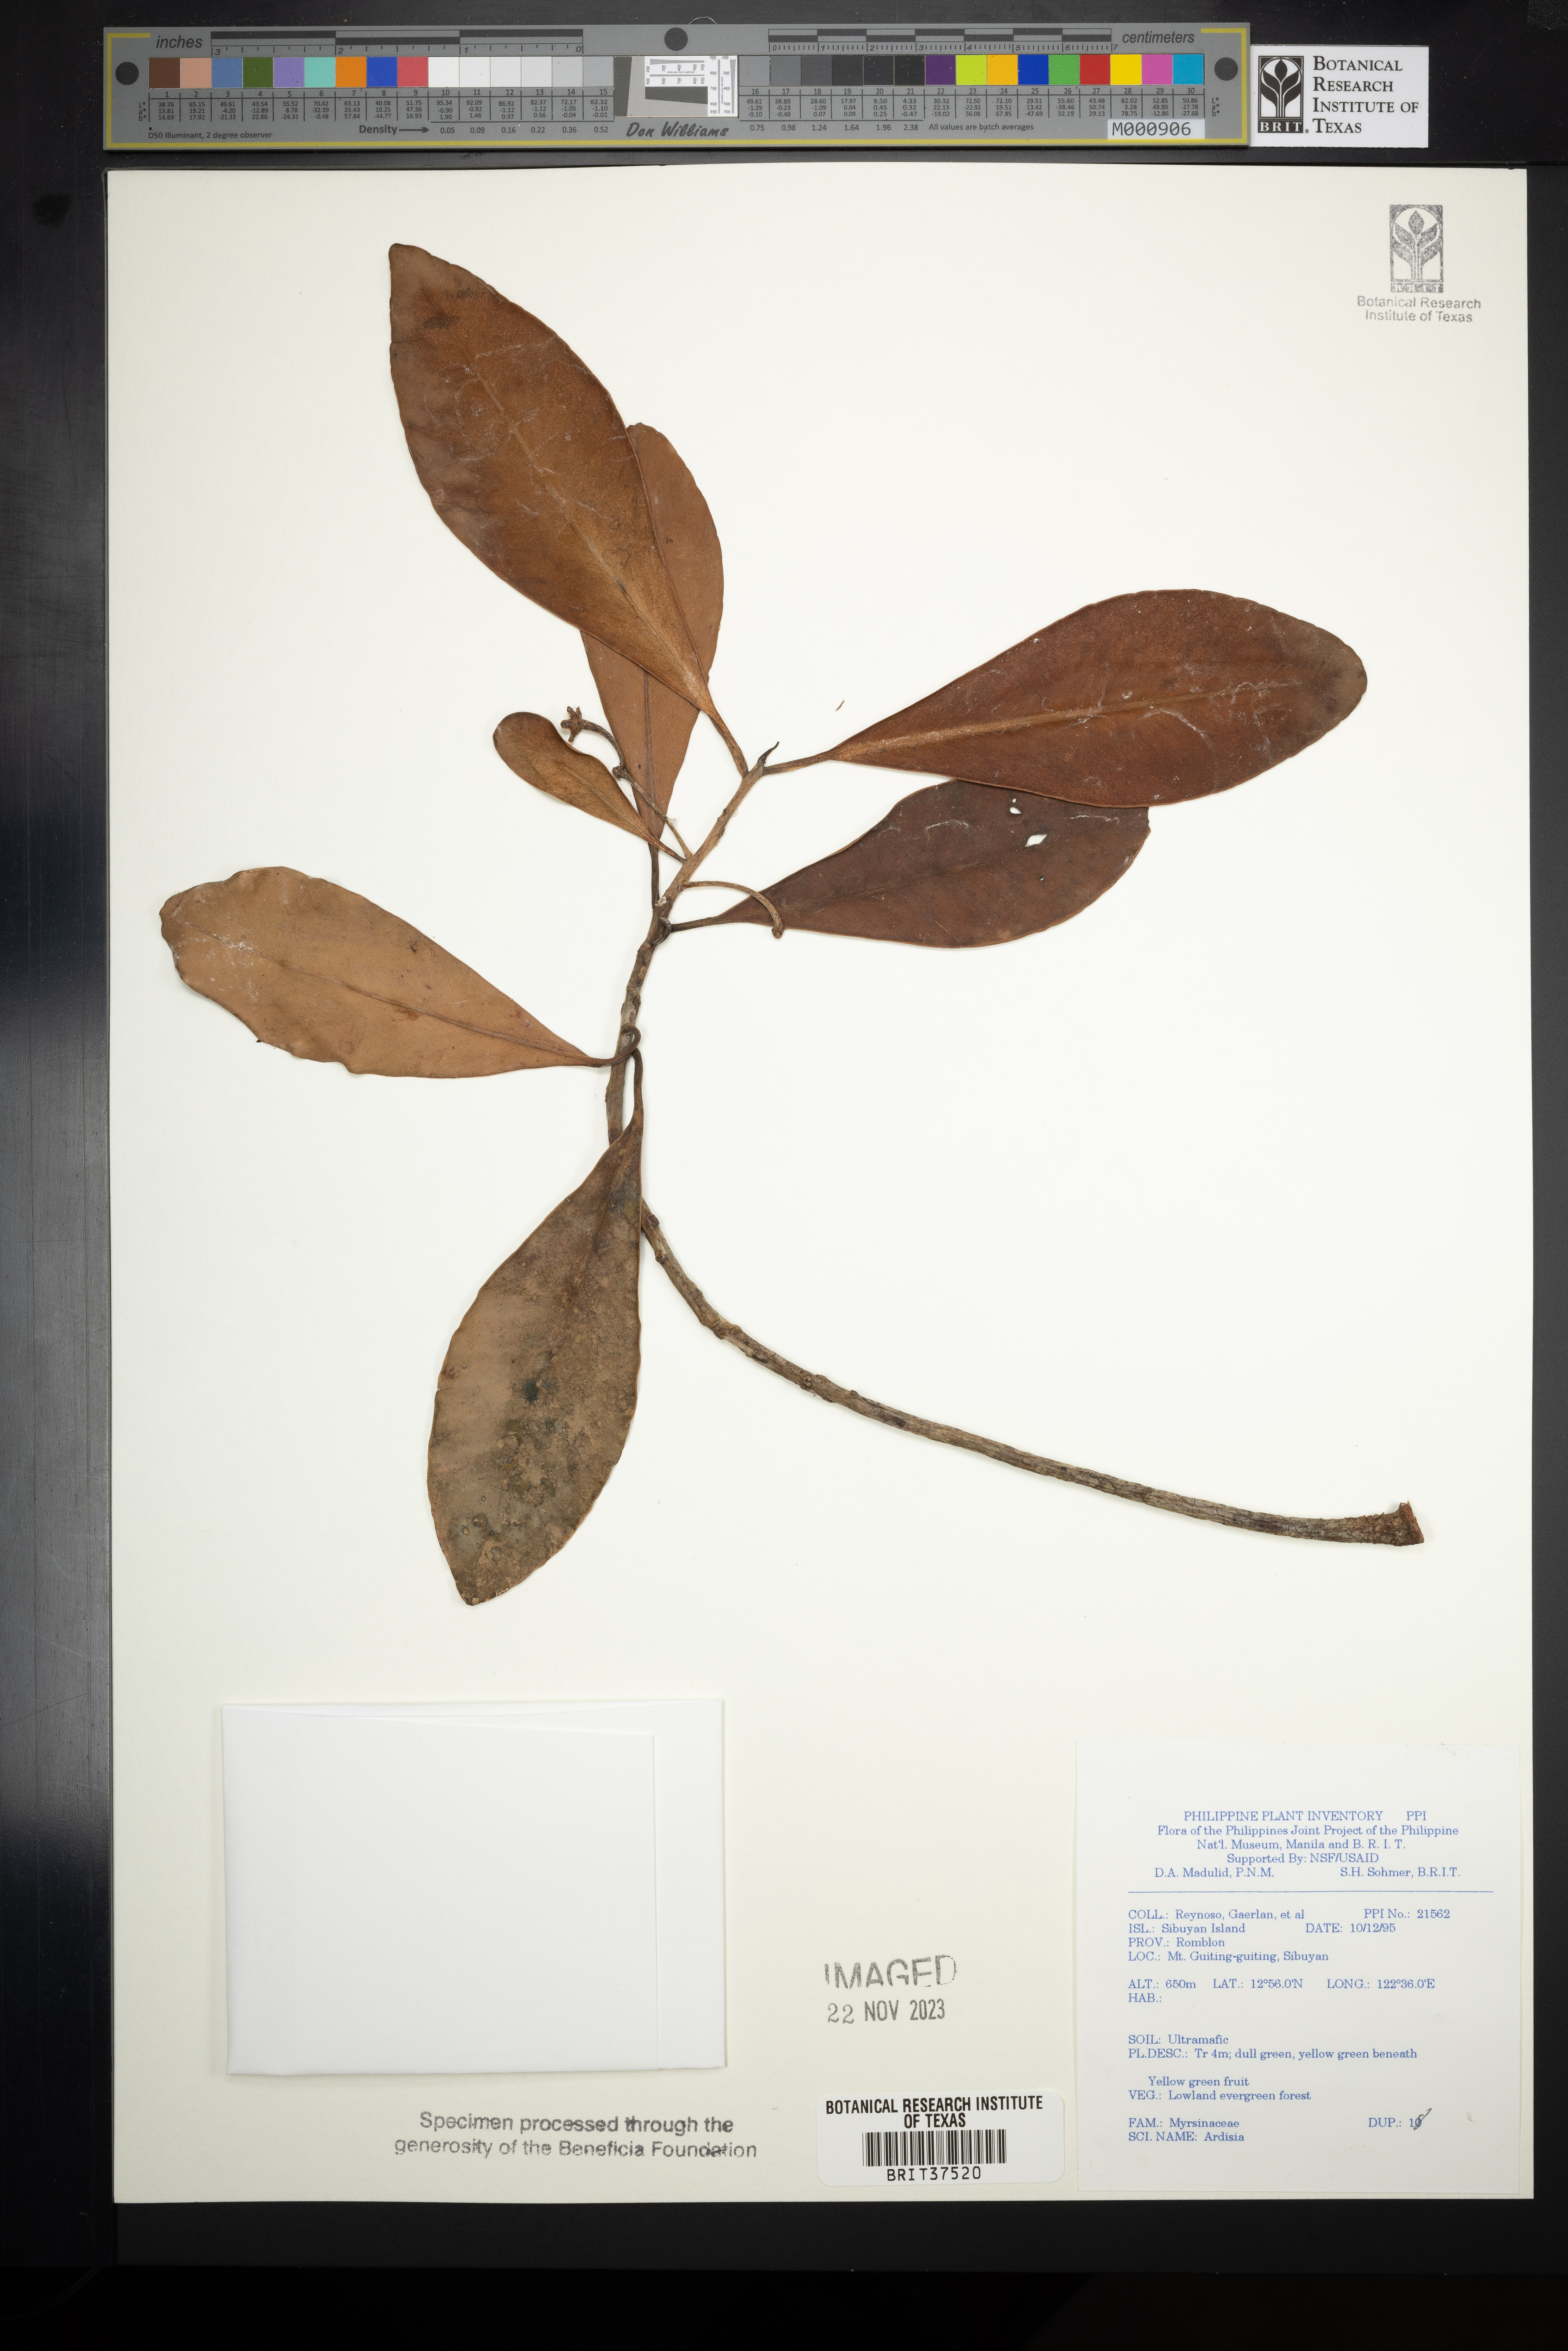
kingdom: Plantae
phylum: Tracheophyta
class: Magnoliopsida
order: Ericales
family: Primulaceae
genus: Ardisia
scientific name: Ardisia
